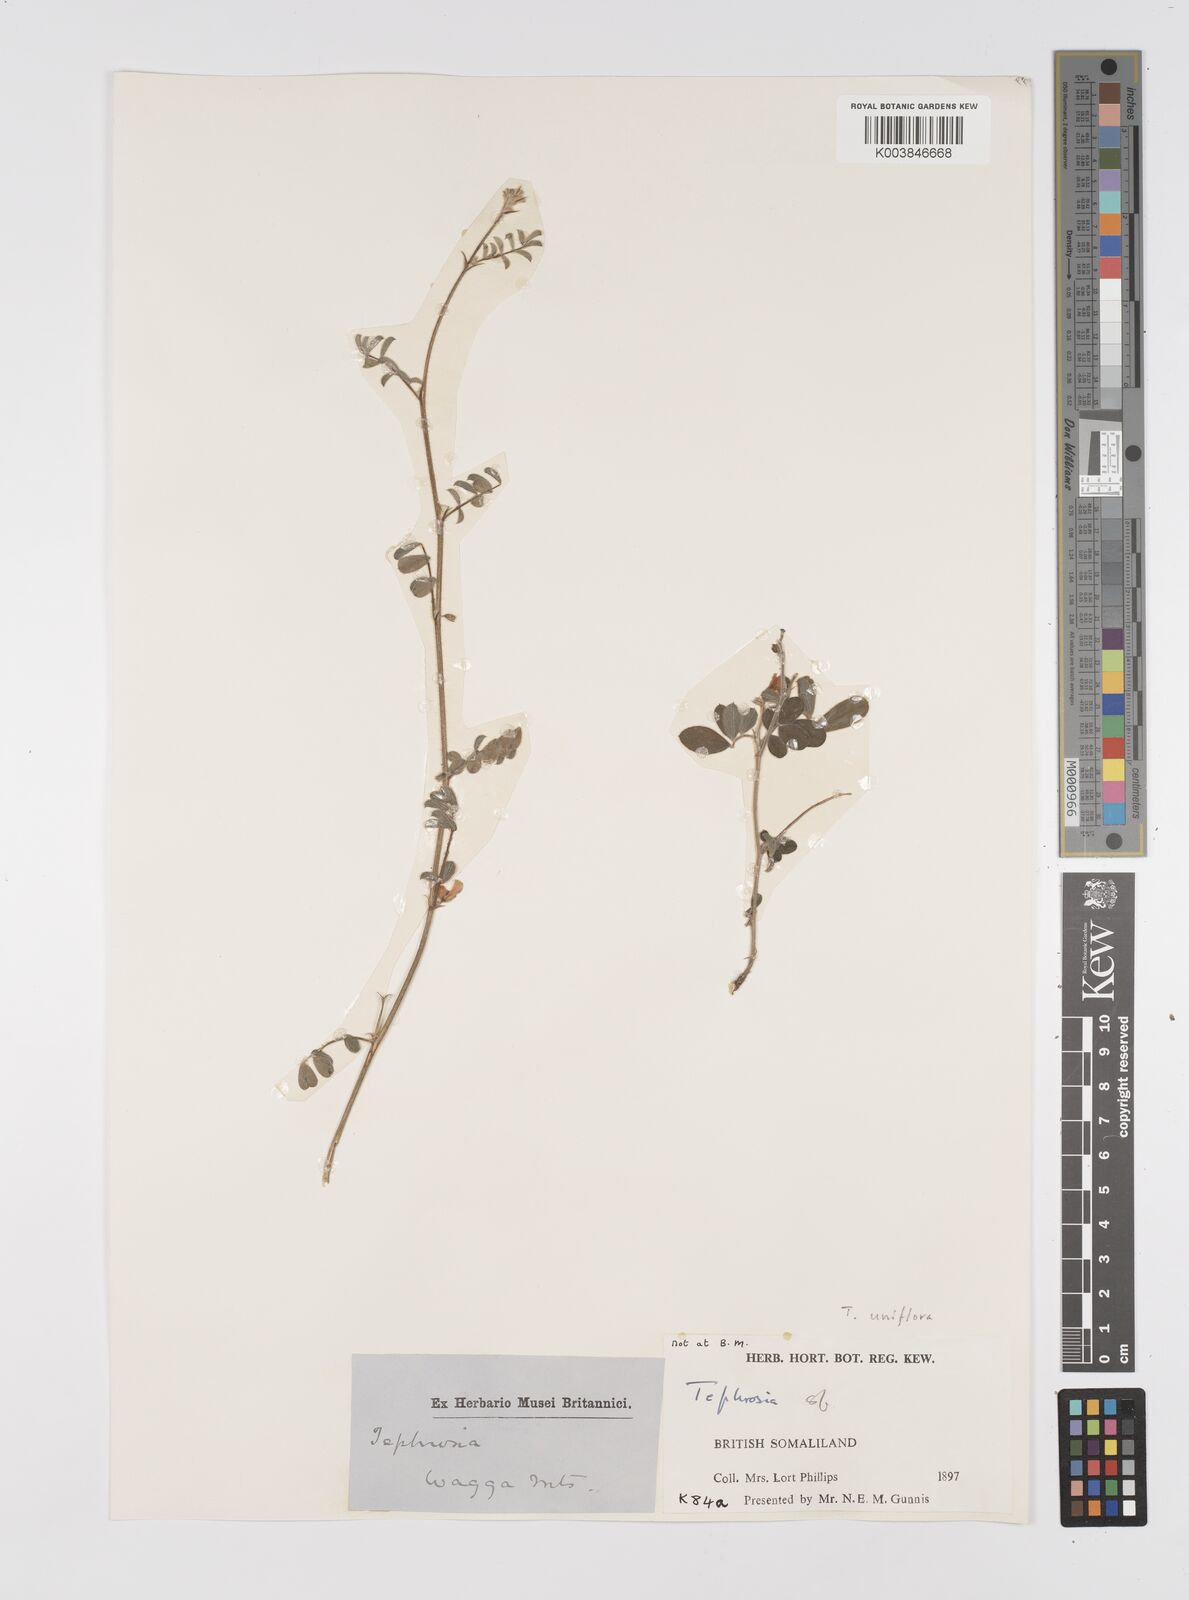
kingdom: Plantae
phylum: Tracheophyta
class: Magnoliopsida
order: Fabales
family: Fabaceae
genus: Tephrosia
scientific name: Tephrosia uniflora
